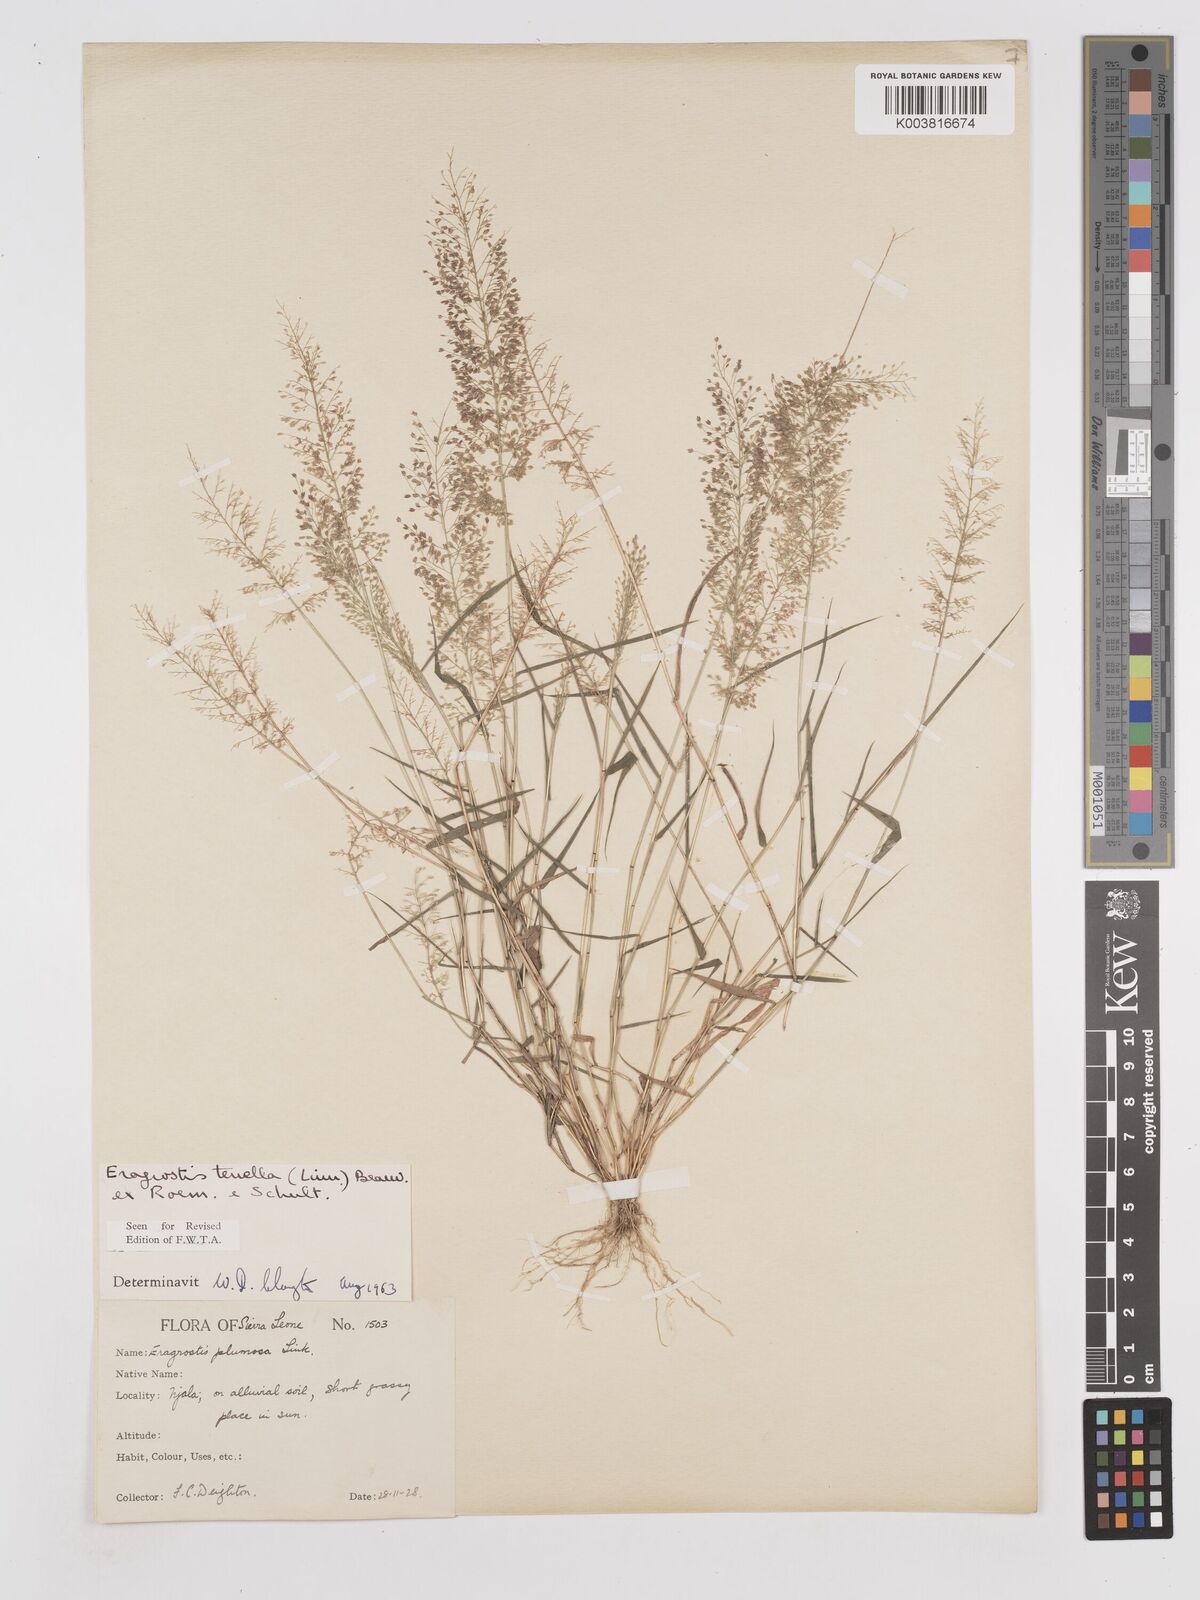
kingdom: Plantae
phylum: Tracheophyta
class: Liliopsida
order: Poales
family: Poaceae
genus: Eragrostis
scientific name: Eragrostis tenella
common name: Japanese lovegrass
